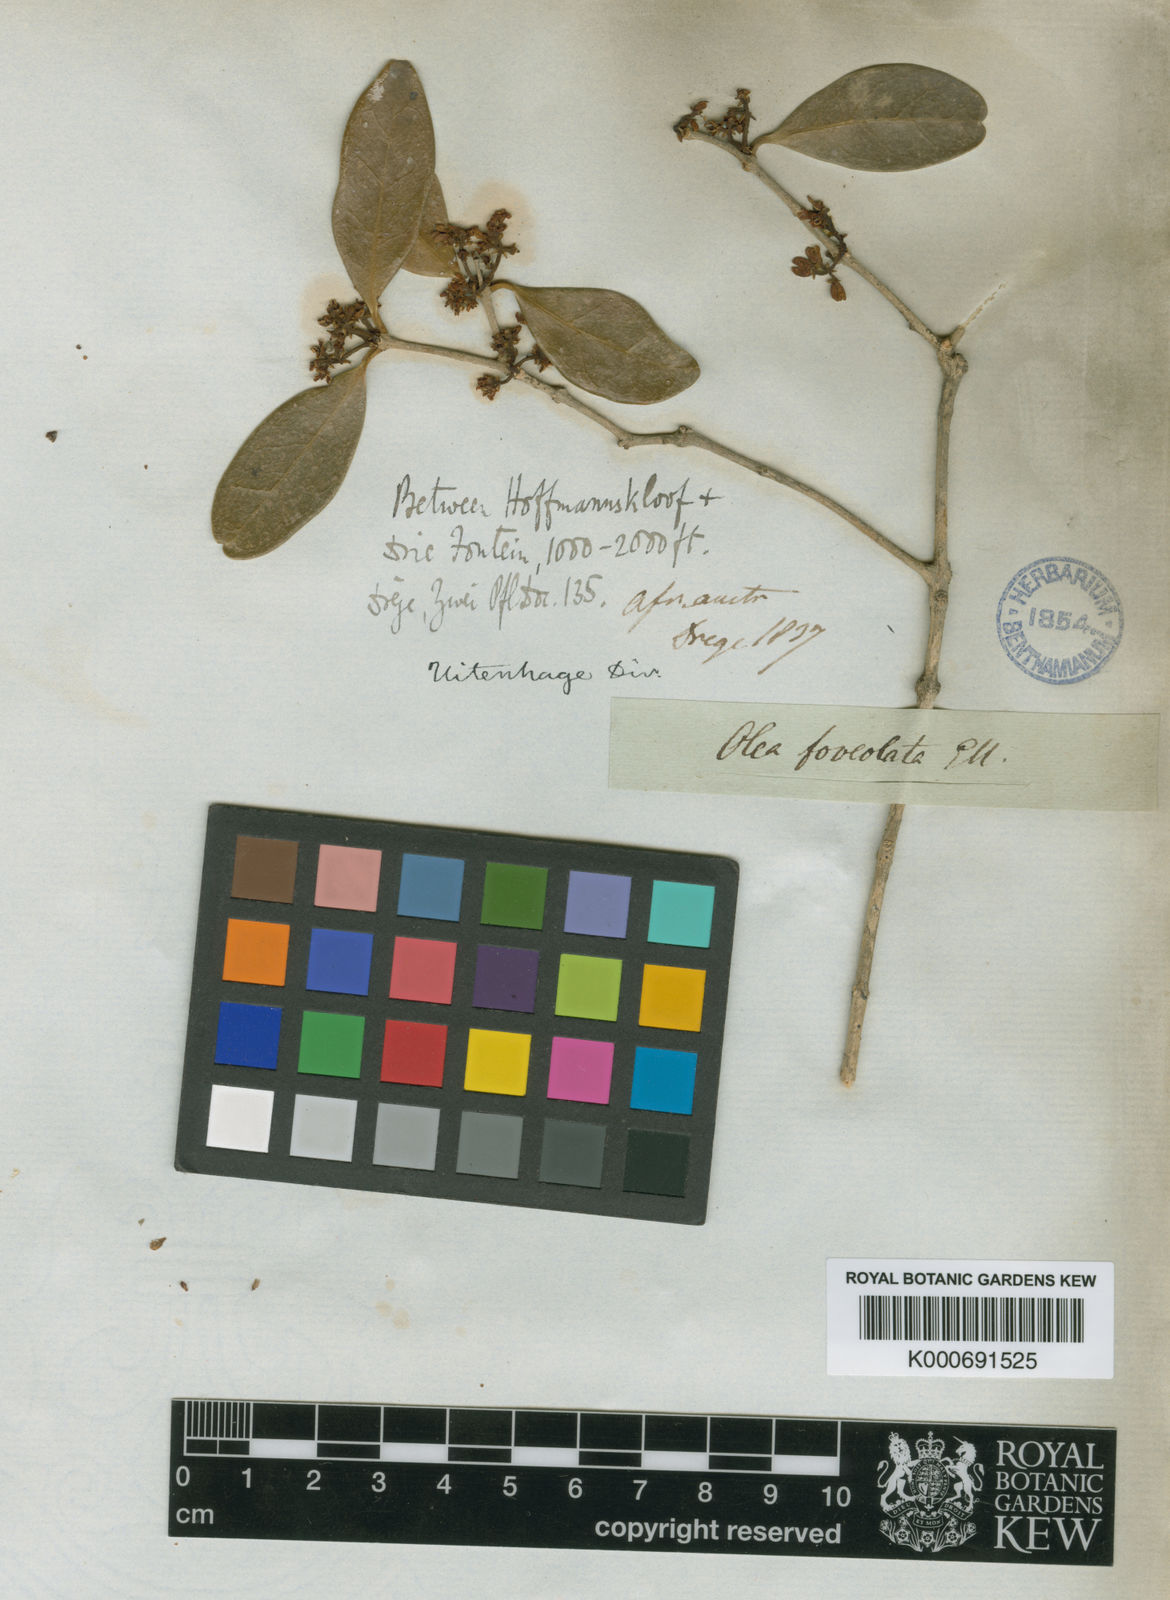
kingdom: Plantae
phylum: Tracheophyta
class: Magnoliopsida
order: Lamiales
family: Oleaceae
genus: Noronhia
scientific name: Noronhia foveolata
